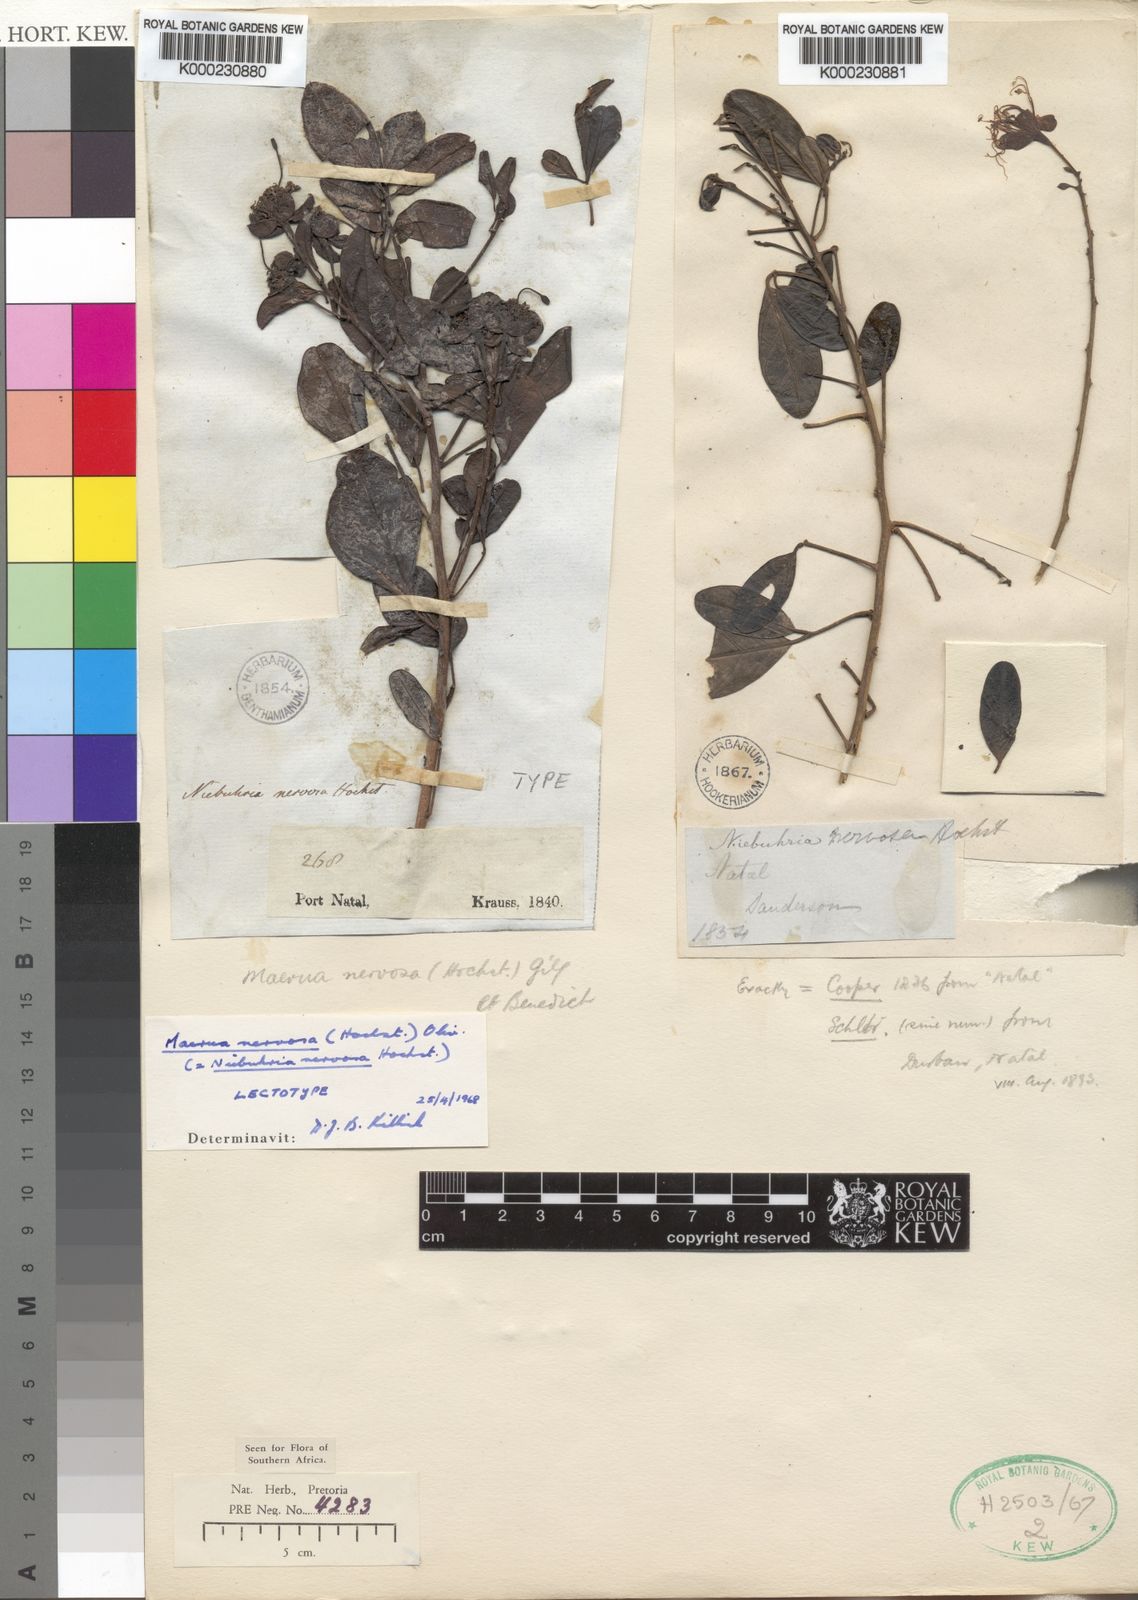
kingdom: Plantae
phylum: Tracheophyta
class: Magnoliopsida
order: Brassicales
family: Capparaceae
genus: Maerua
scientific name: Maerua nervosa
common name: Natal bush-cherry
